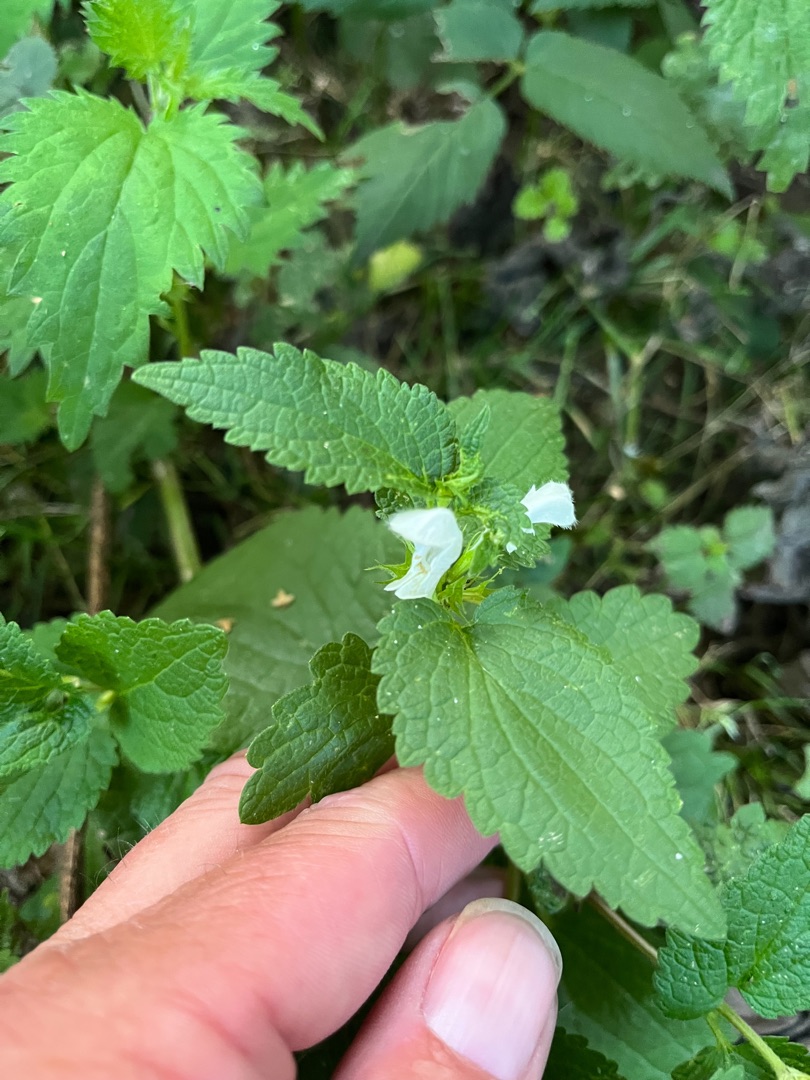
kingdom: Plantae
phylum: Tracheophyta
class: Magnoliopsida
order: Lamiales
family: Lamiaceae
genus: Lamium
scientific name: Lamium album
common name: Døvnælde
